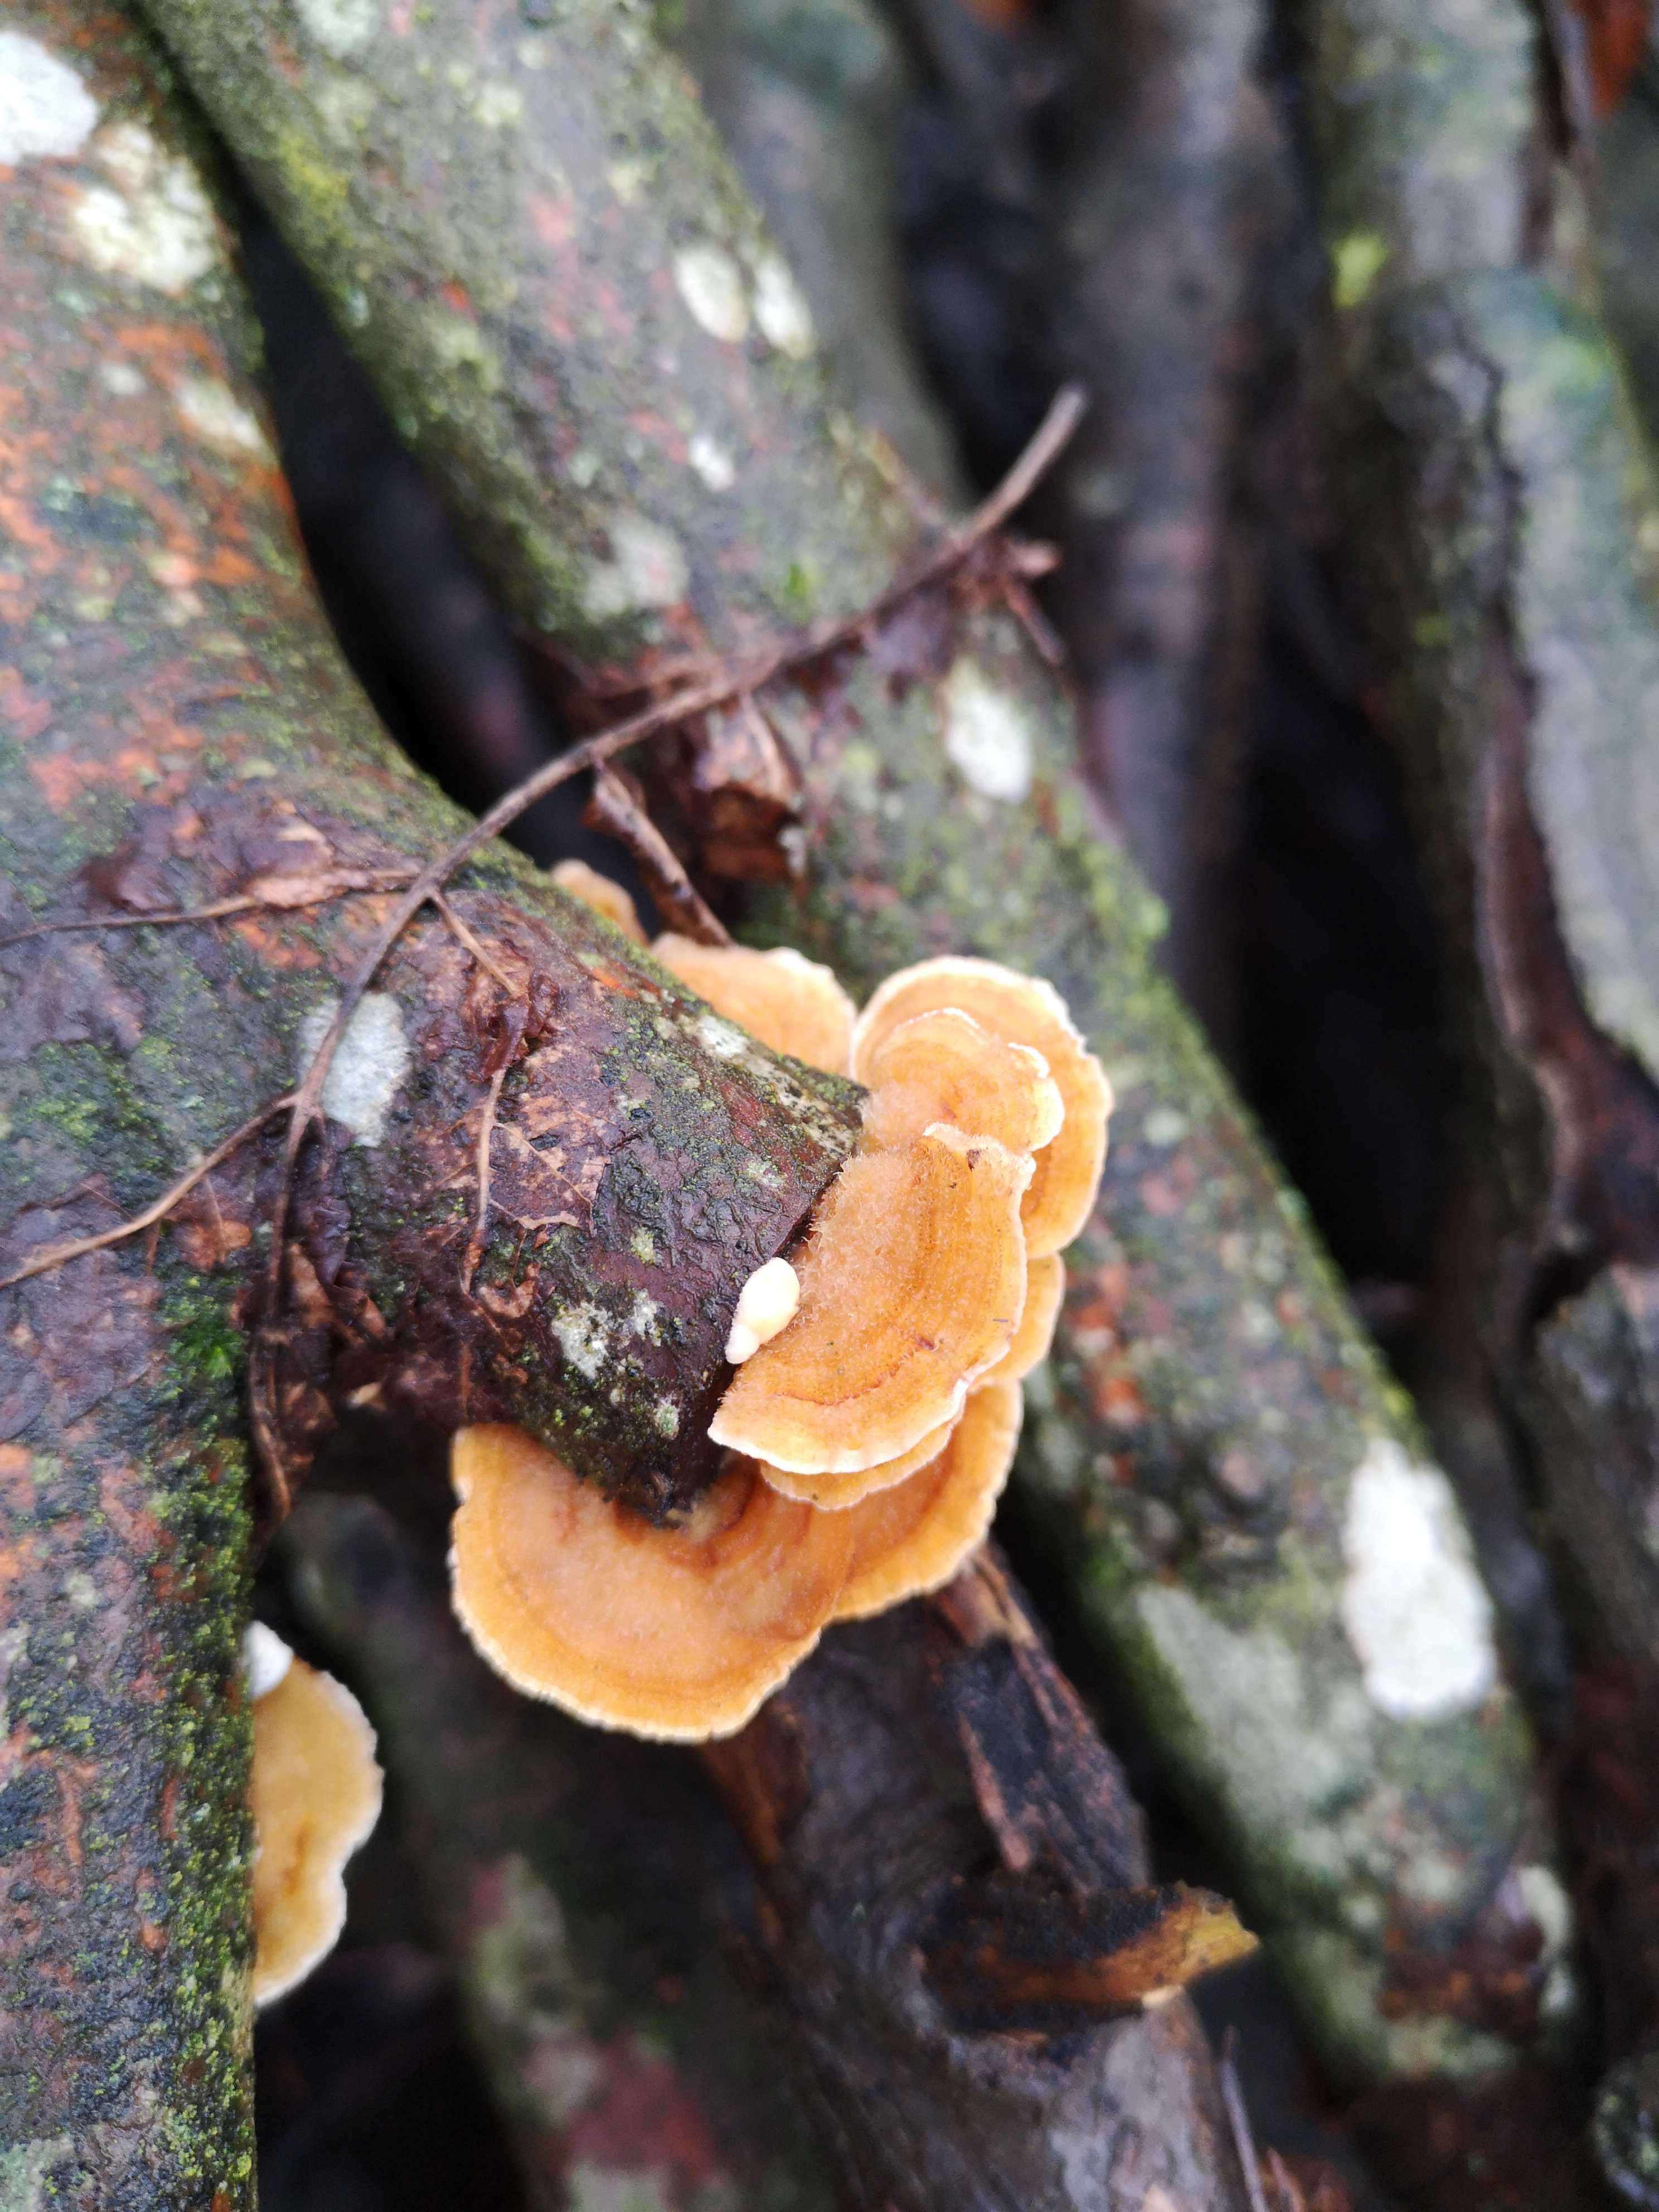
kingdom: Fungi
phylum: Basidiomycota
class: Agaricomycetes
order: Russulales
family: Stereaceae
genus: Stereum
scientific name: Stereum hirsutum
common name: håret lædersvamp
